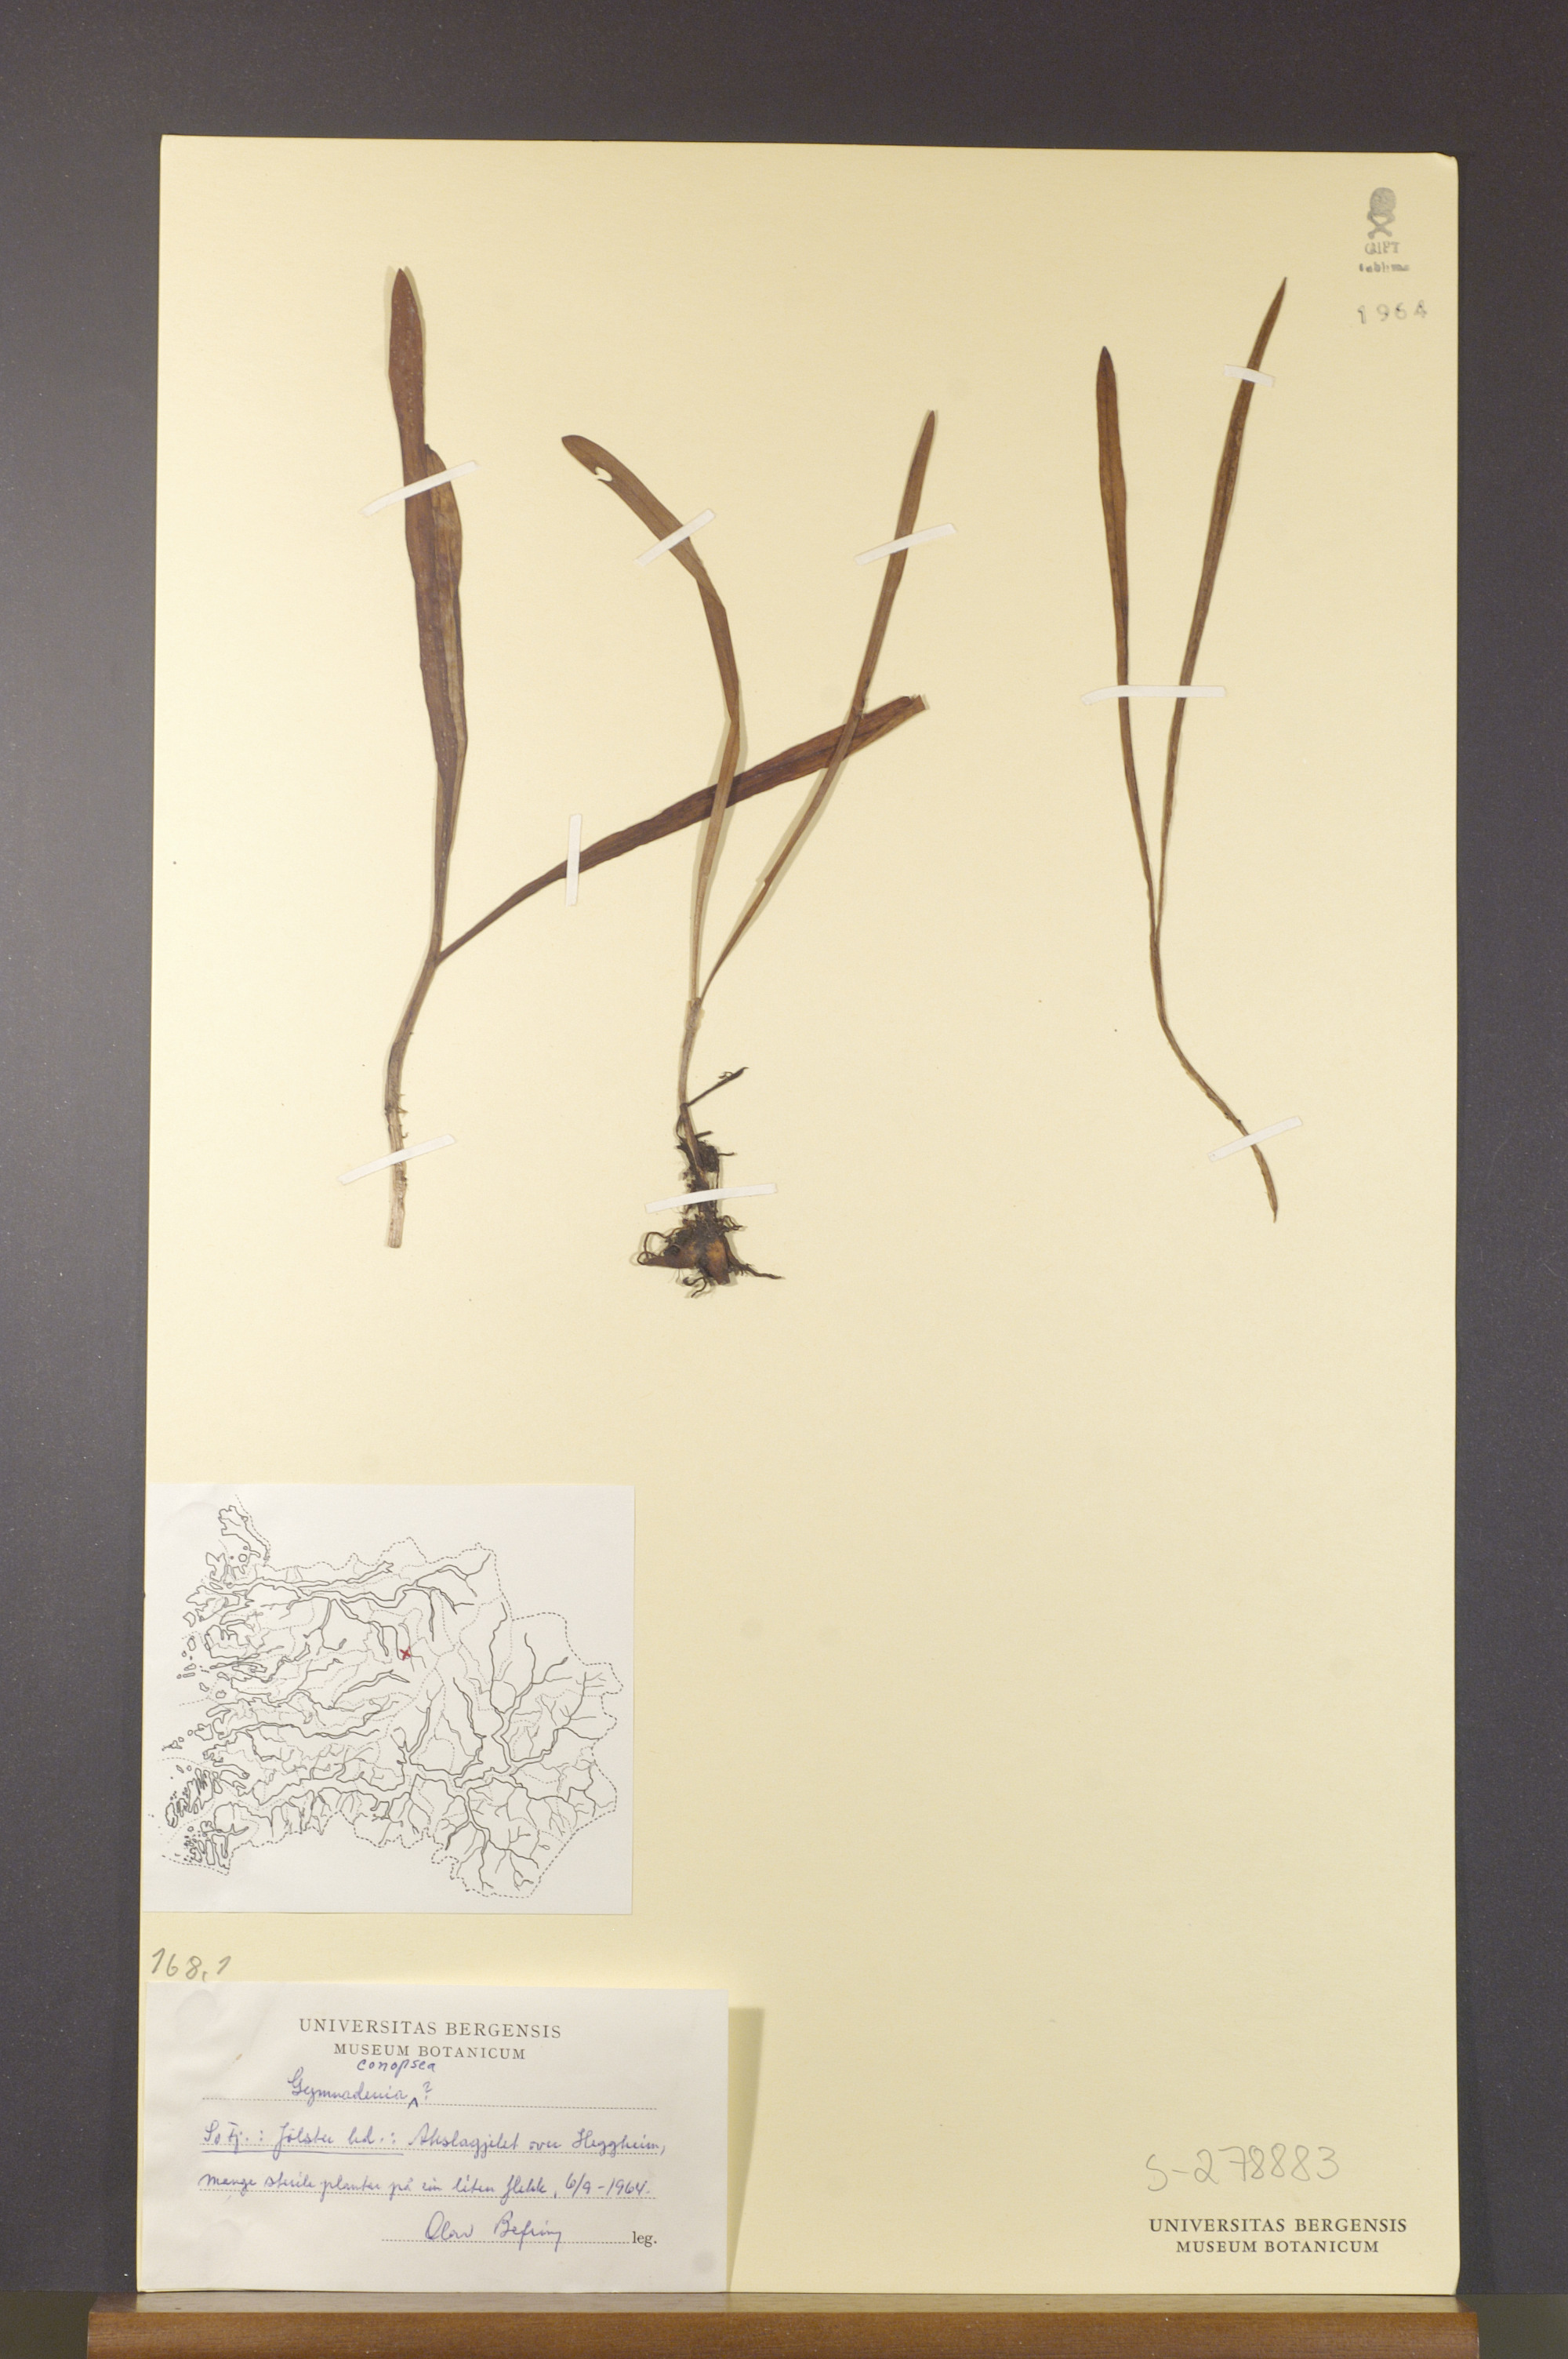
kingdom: Plantae
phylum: Tracheophyta
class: Liliopsida
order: Asparagales
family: Orchidaceae
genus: Gymnadenia
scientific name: Gymnadenia conopsea
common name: Fragrant orchid
